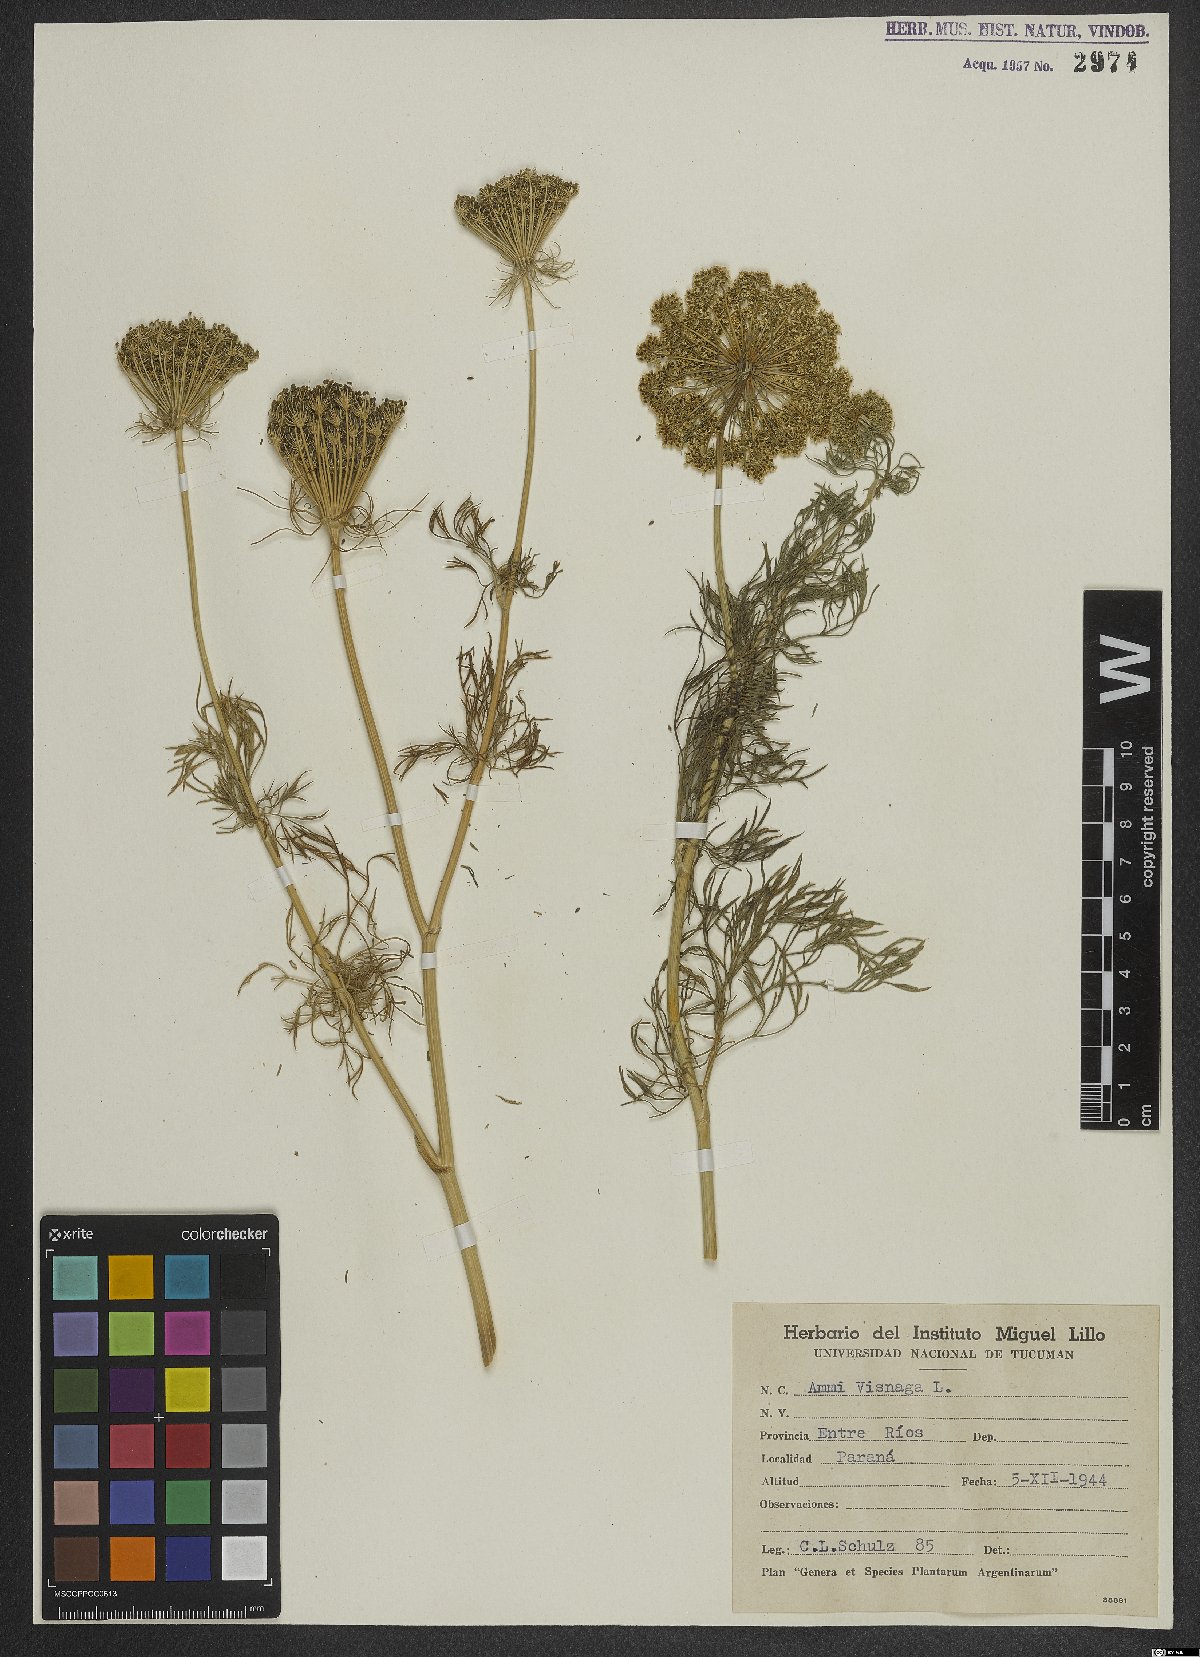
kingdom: Plantae
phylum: Tracheophyta
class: Magnoliopsida
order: Apiales
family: Apiaceae
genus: Visnaga
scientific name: Visnaga daucoides
